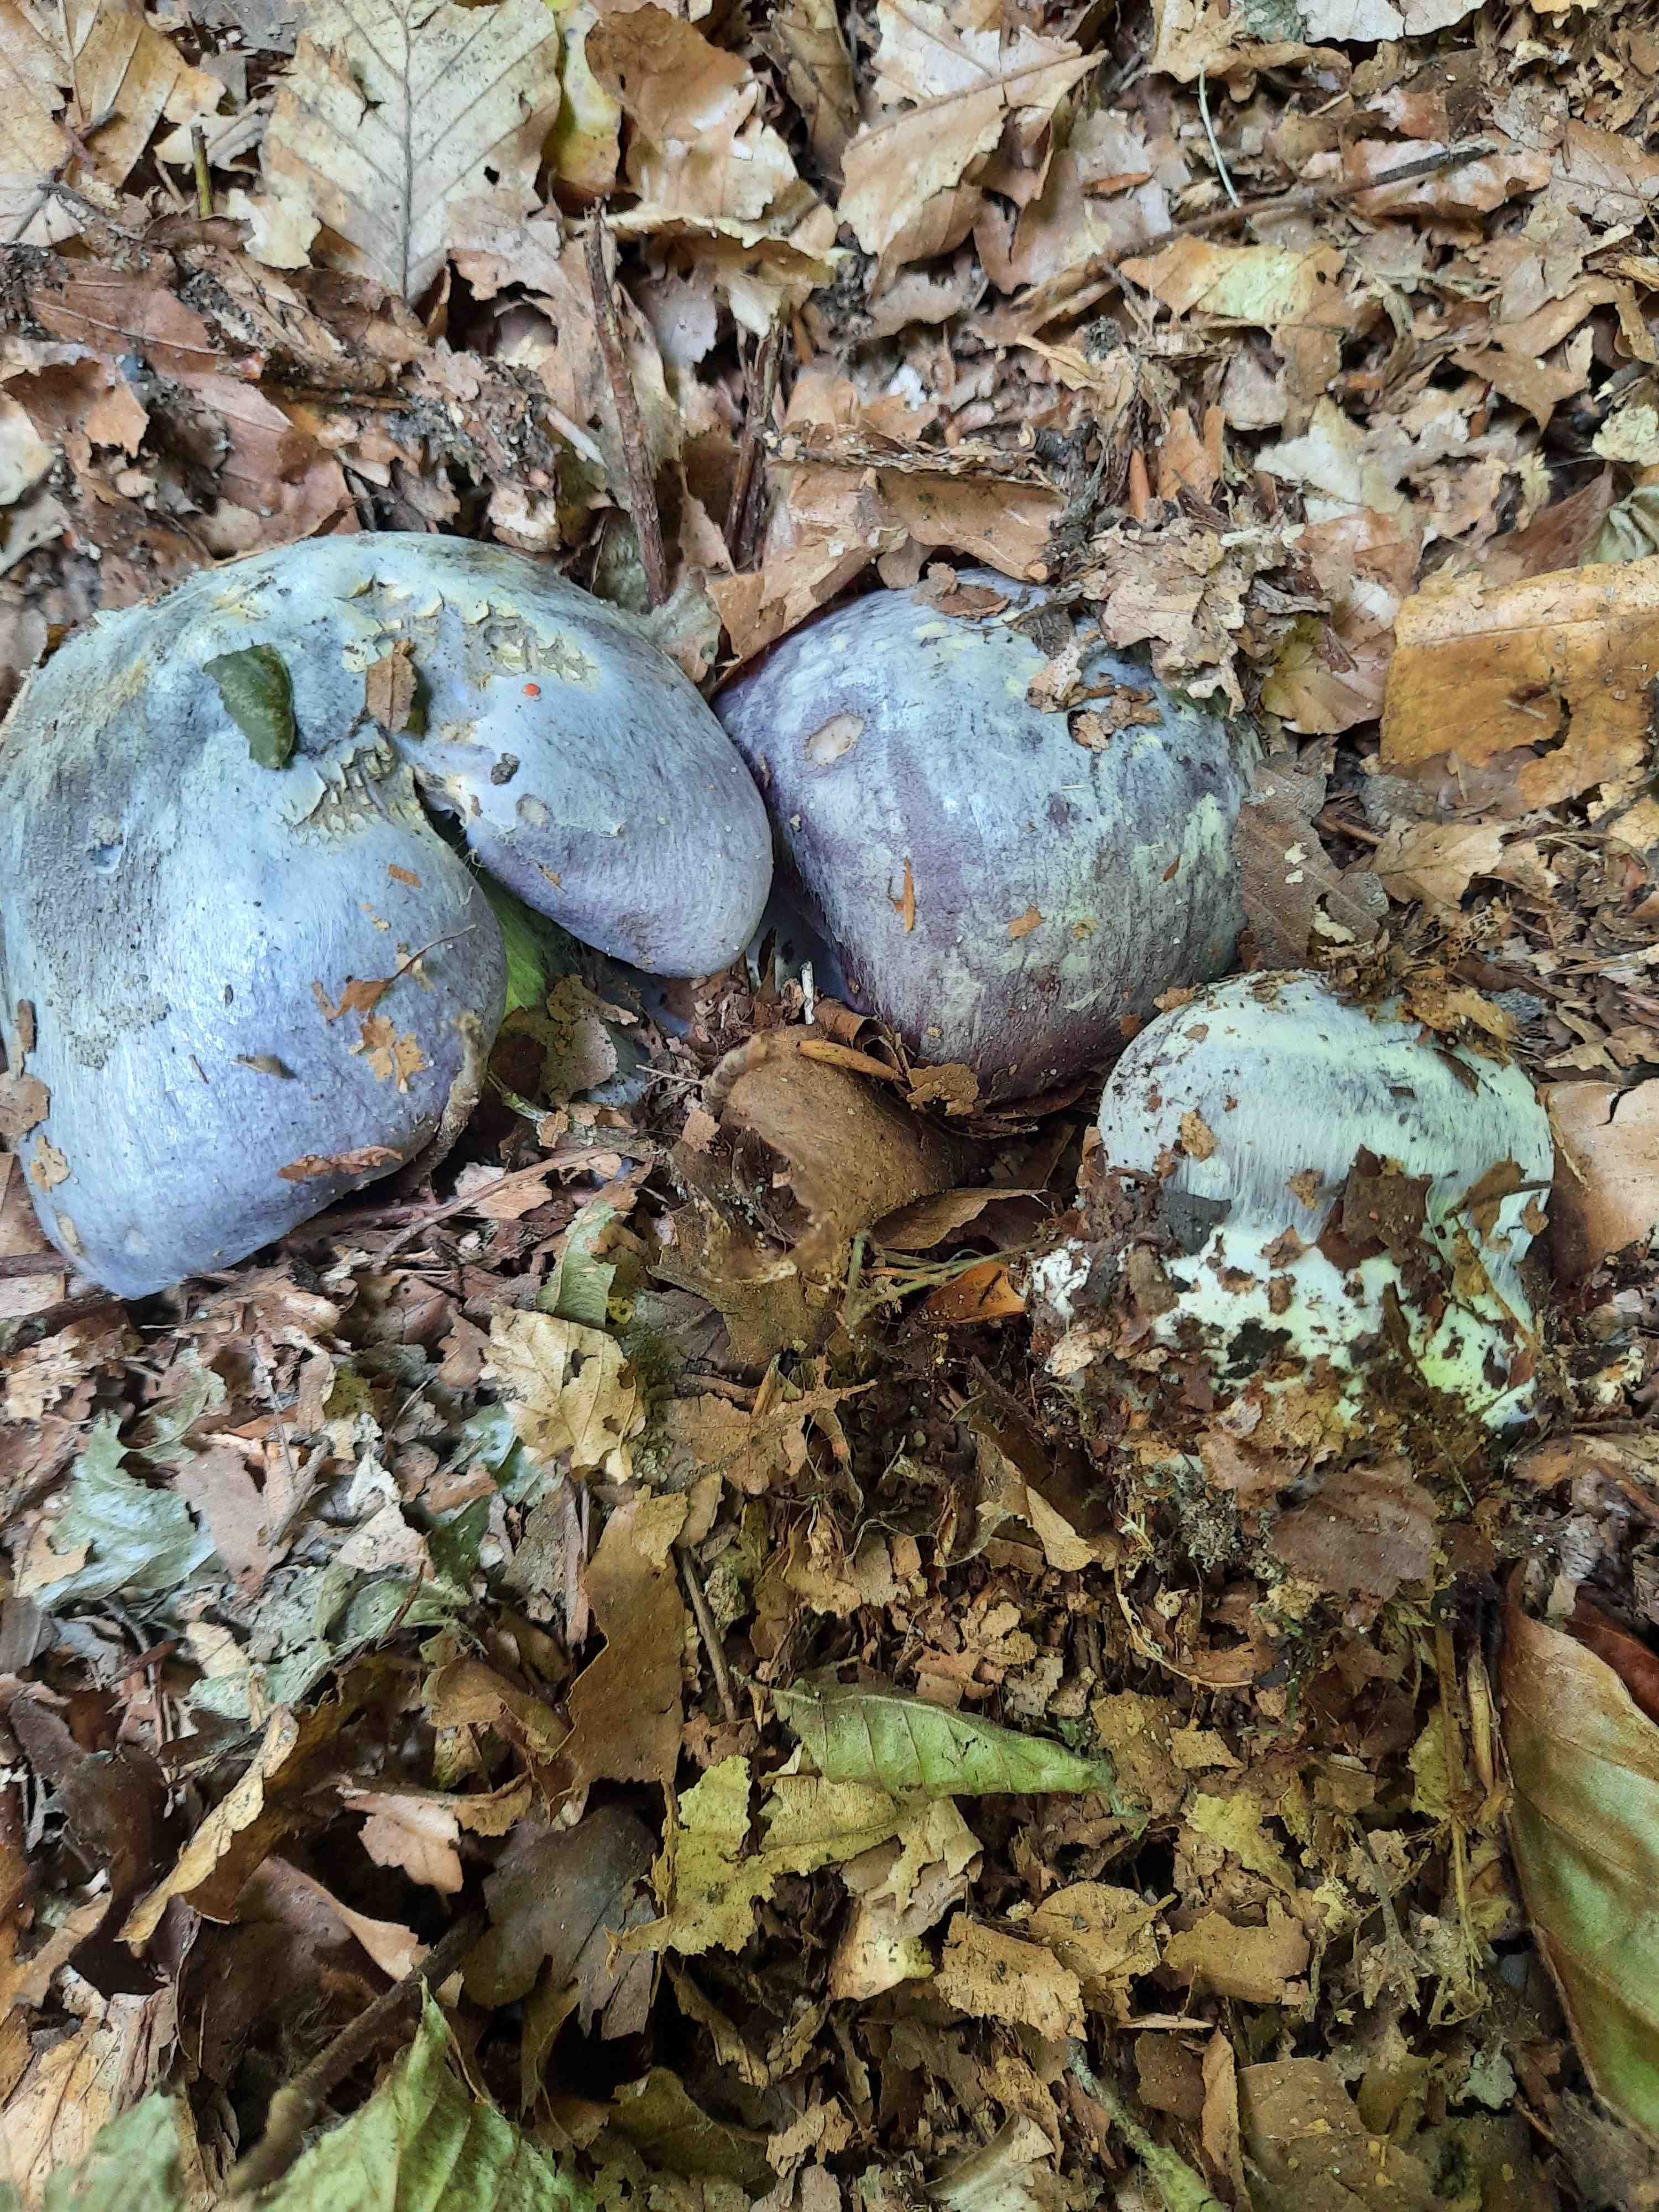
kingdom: Fungi
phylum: Basidiomycota
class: Agaricomycetes
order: Agaricales
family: Cortinariaceae
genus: Cortinarius
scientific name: Cortinarius caerulescens
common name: blåkødet slørhat
